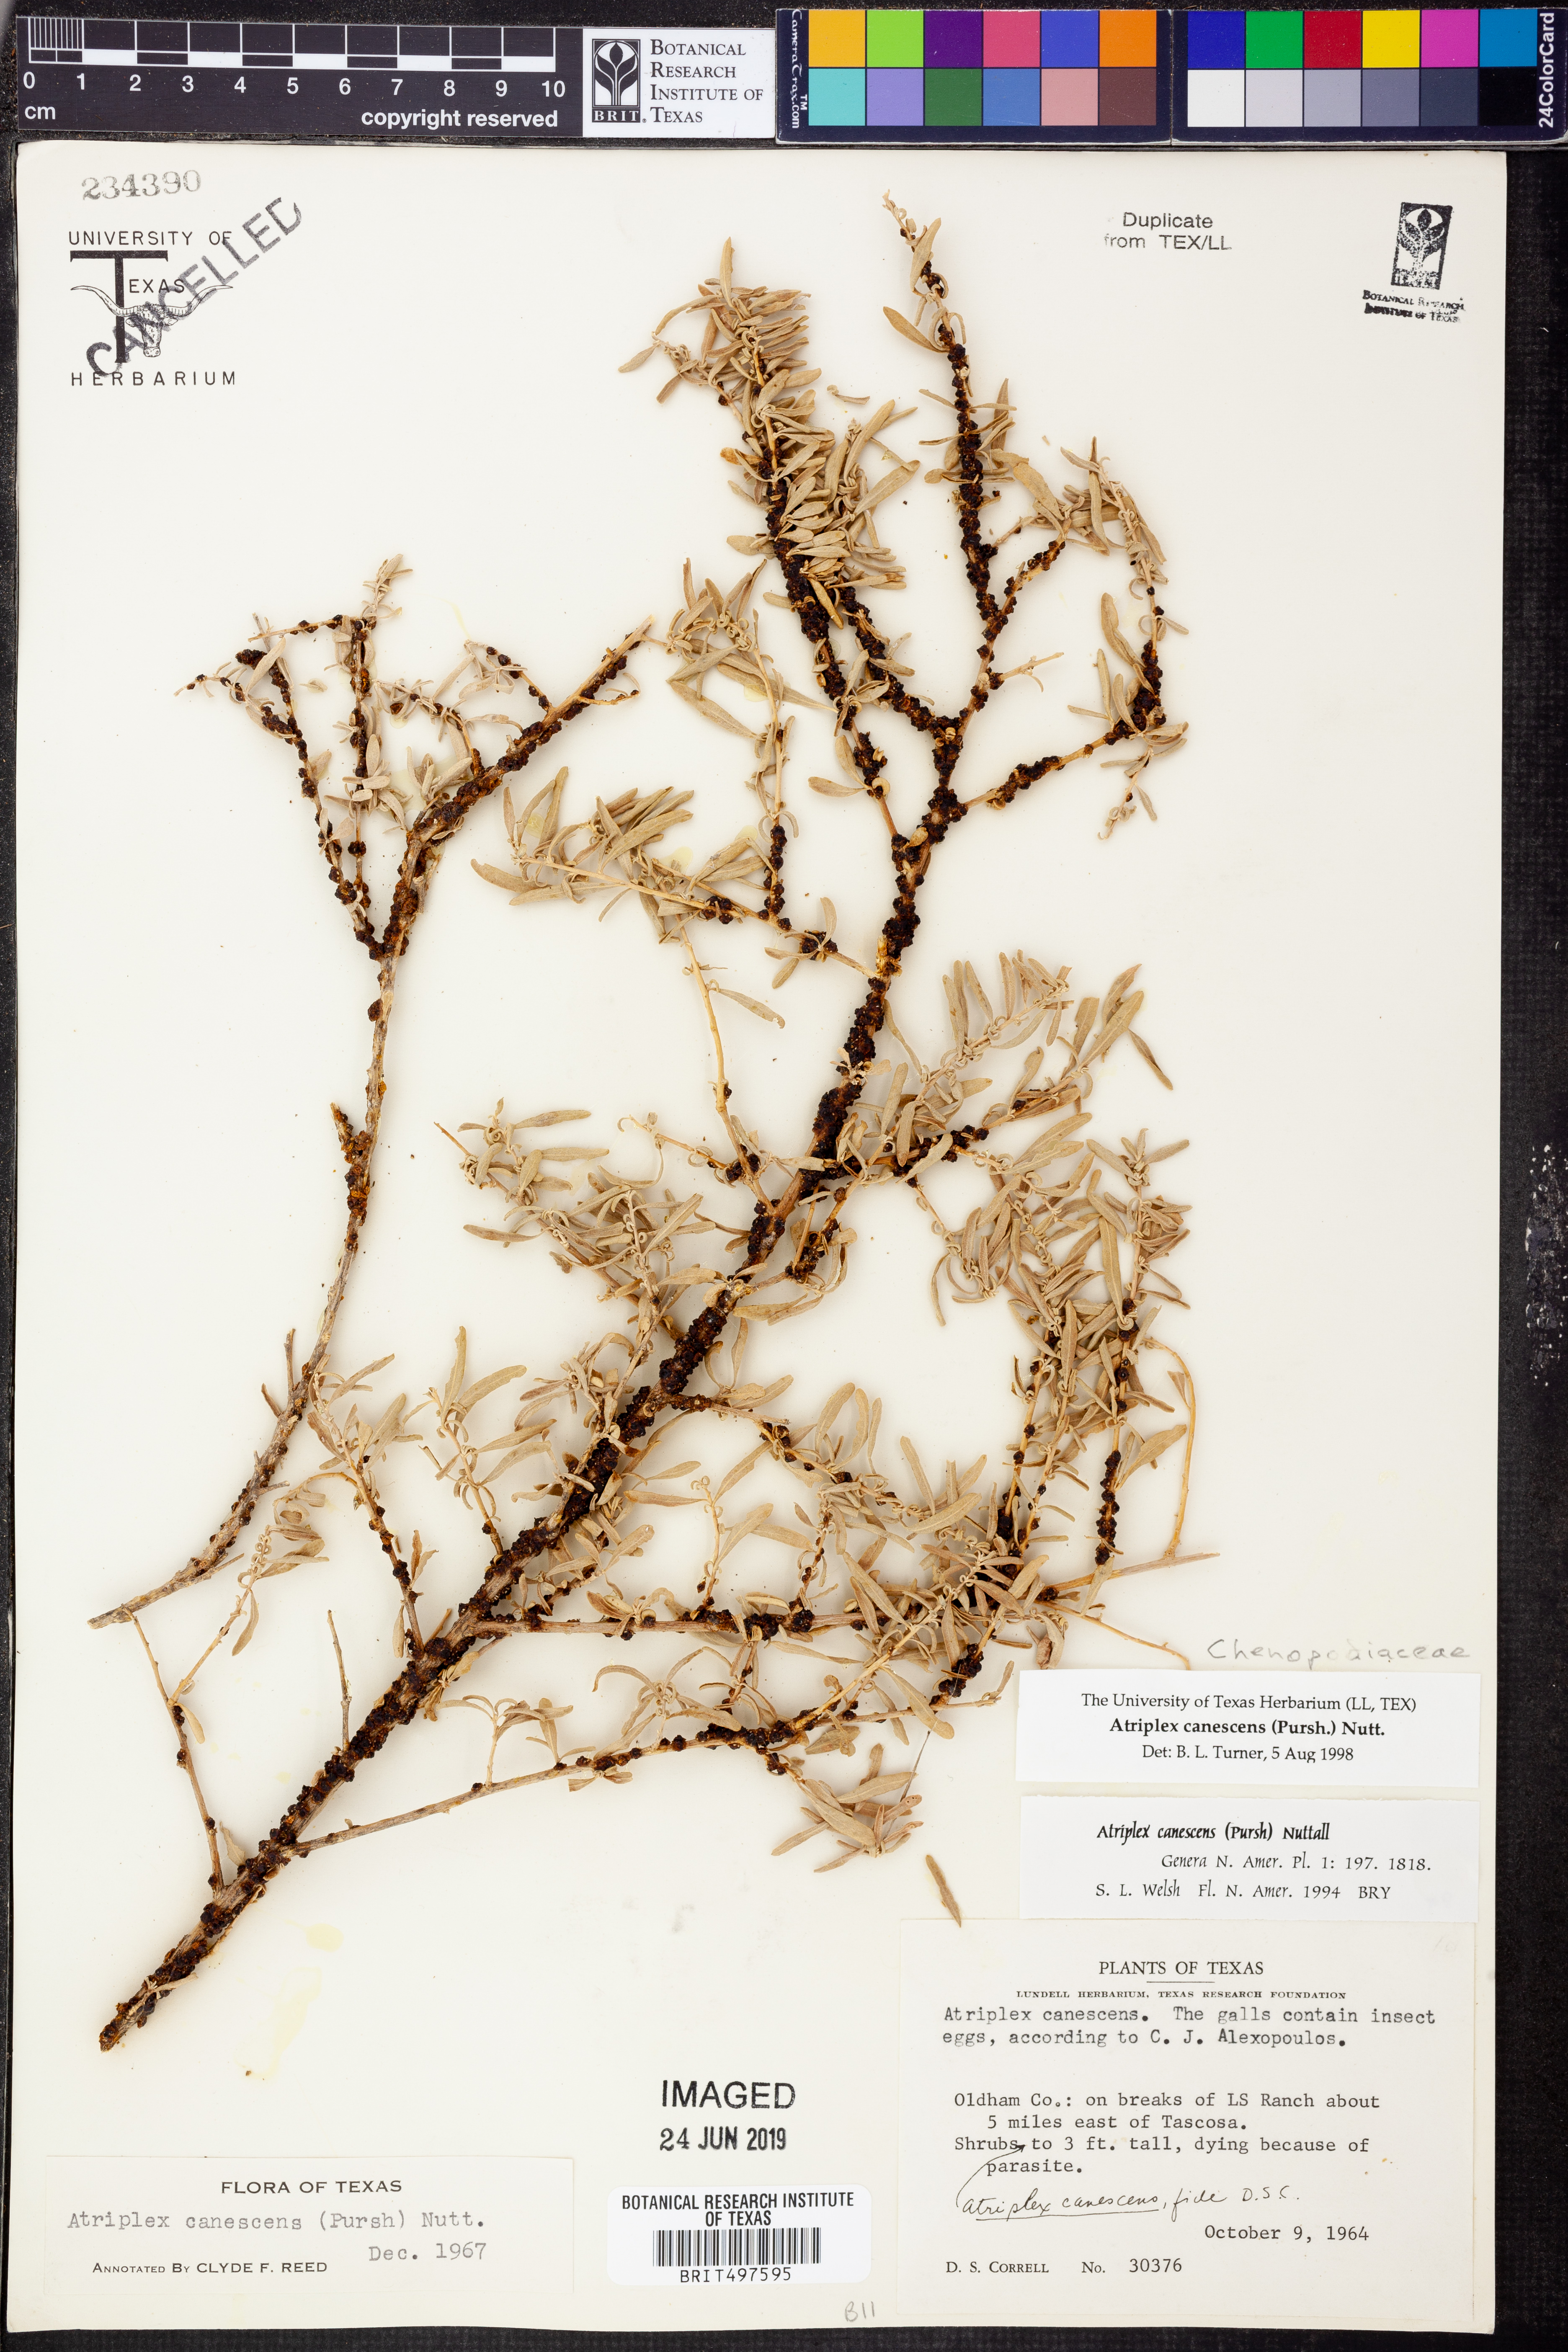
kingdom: Plantae
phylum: Tracheophyta
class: Magnoliopsida
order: Caryophyllales
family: Amaranthaceae
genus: Atriplex
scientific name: Atriplex canescens
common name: Four-wing saltbush
